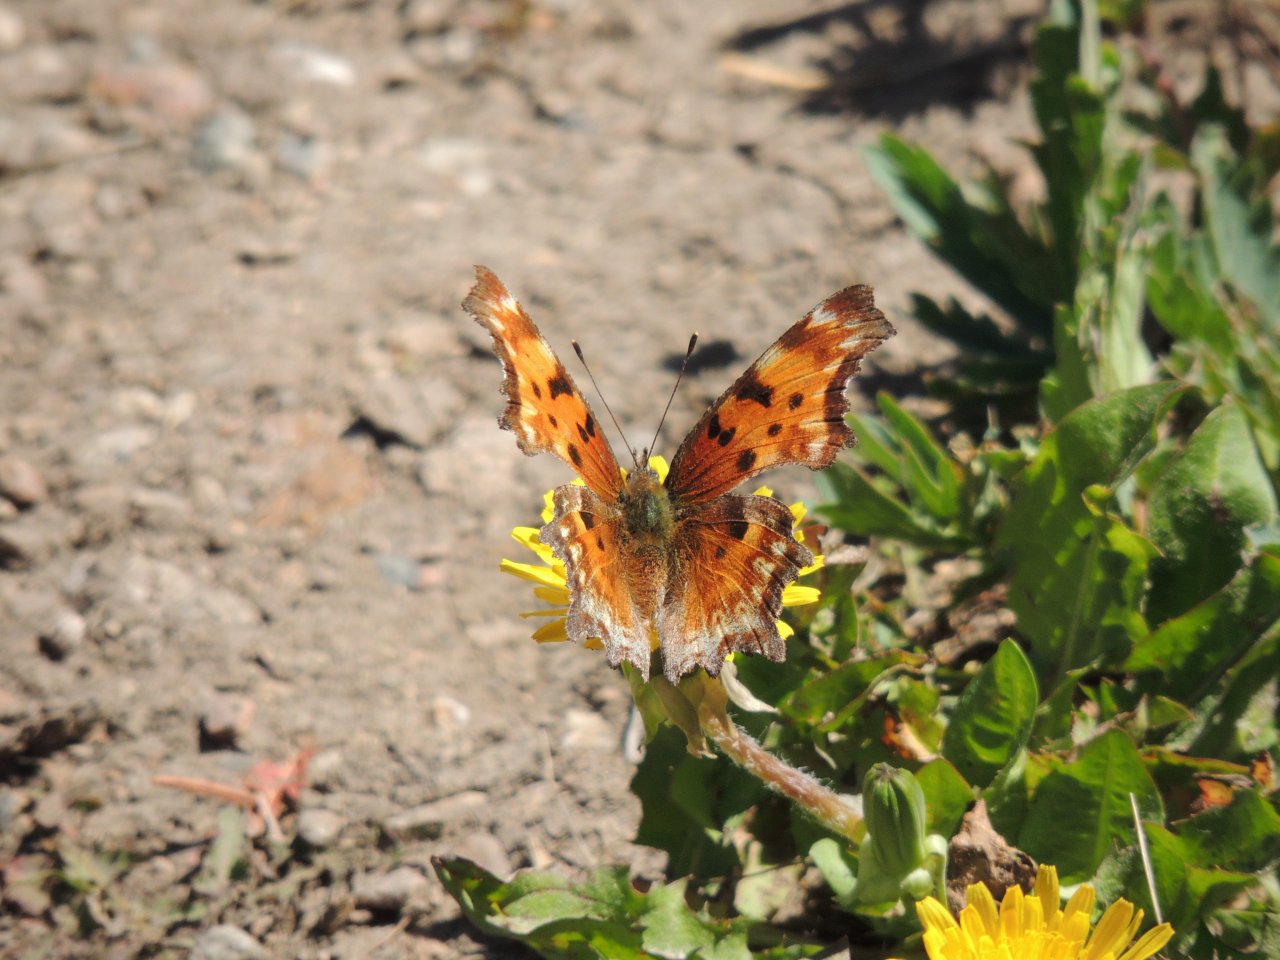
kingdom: Animalia
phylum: Arthropoda
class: Insecta
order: Lepidoptera
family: Nymphalidae
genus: Polygonia
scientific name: Polygonia gracilis
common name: Hoary Comma
